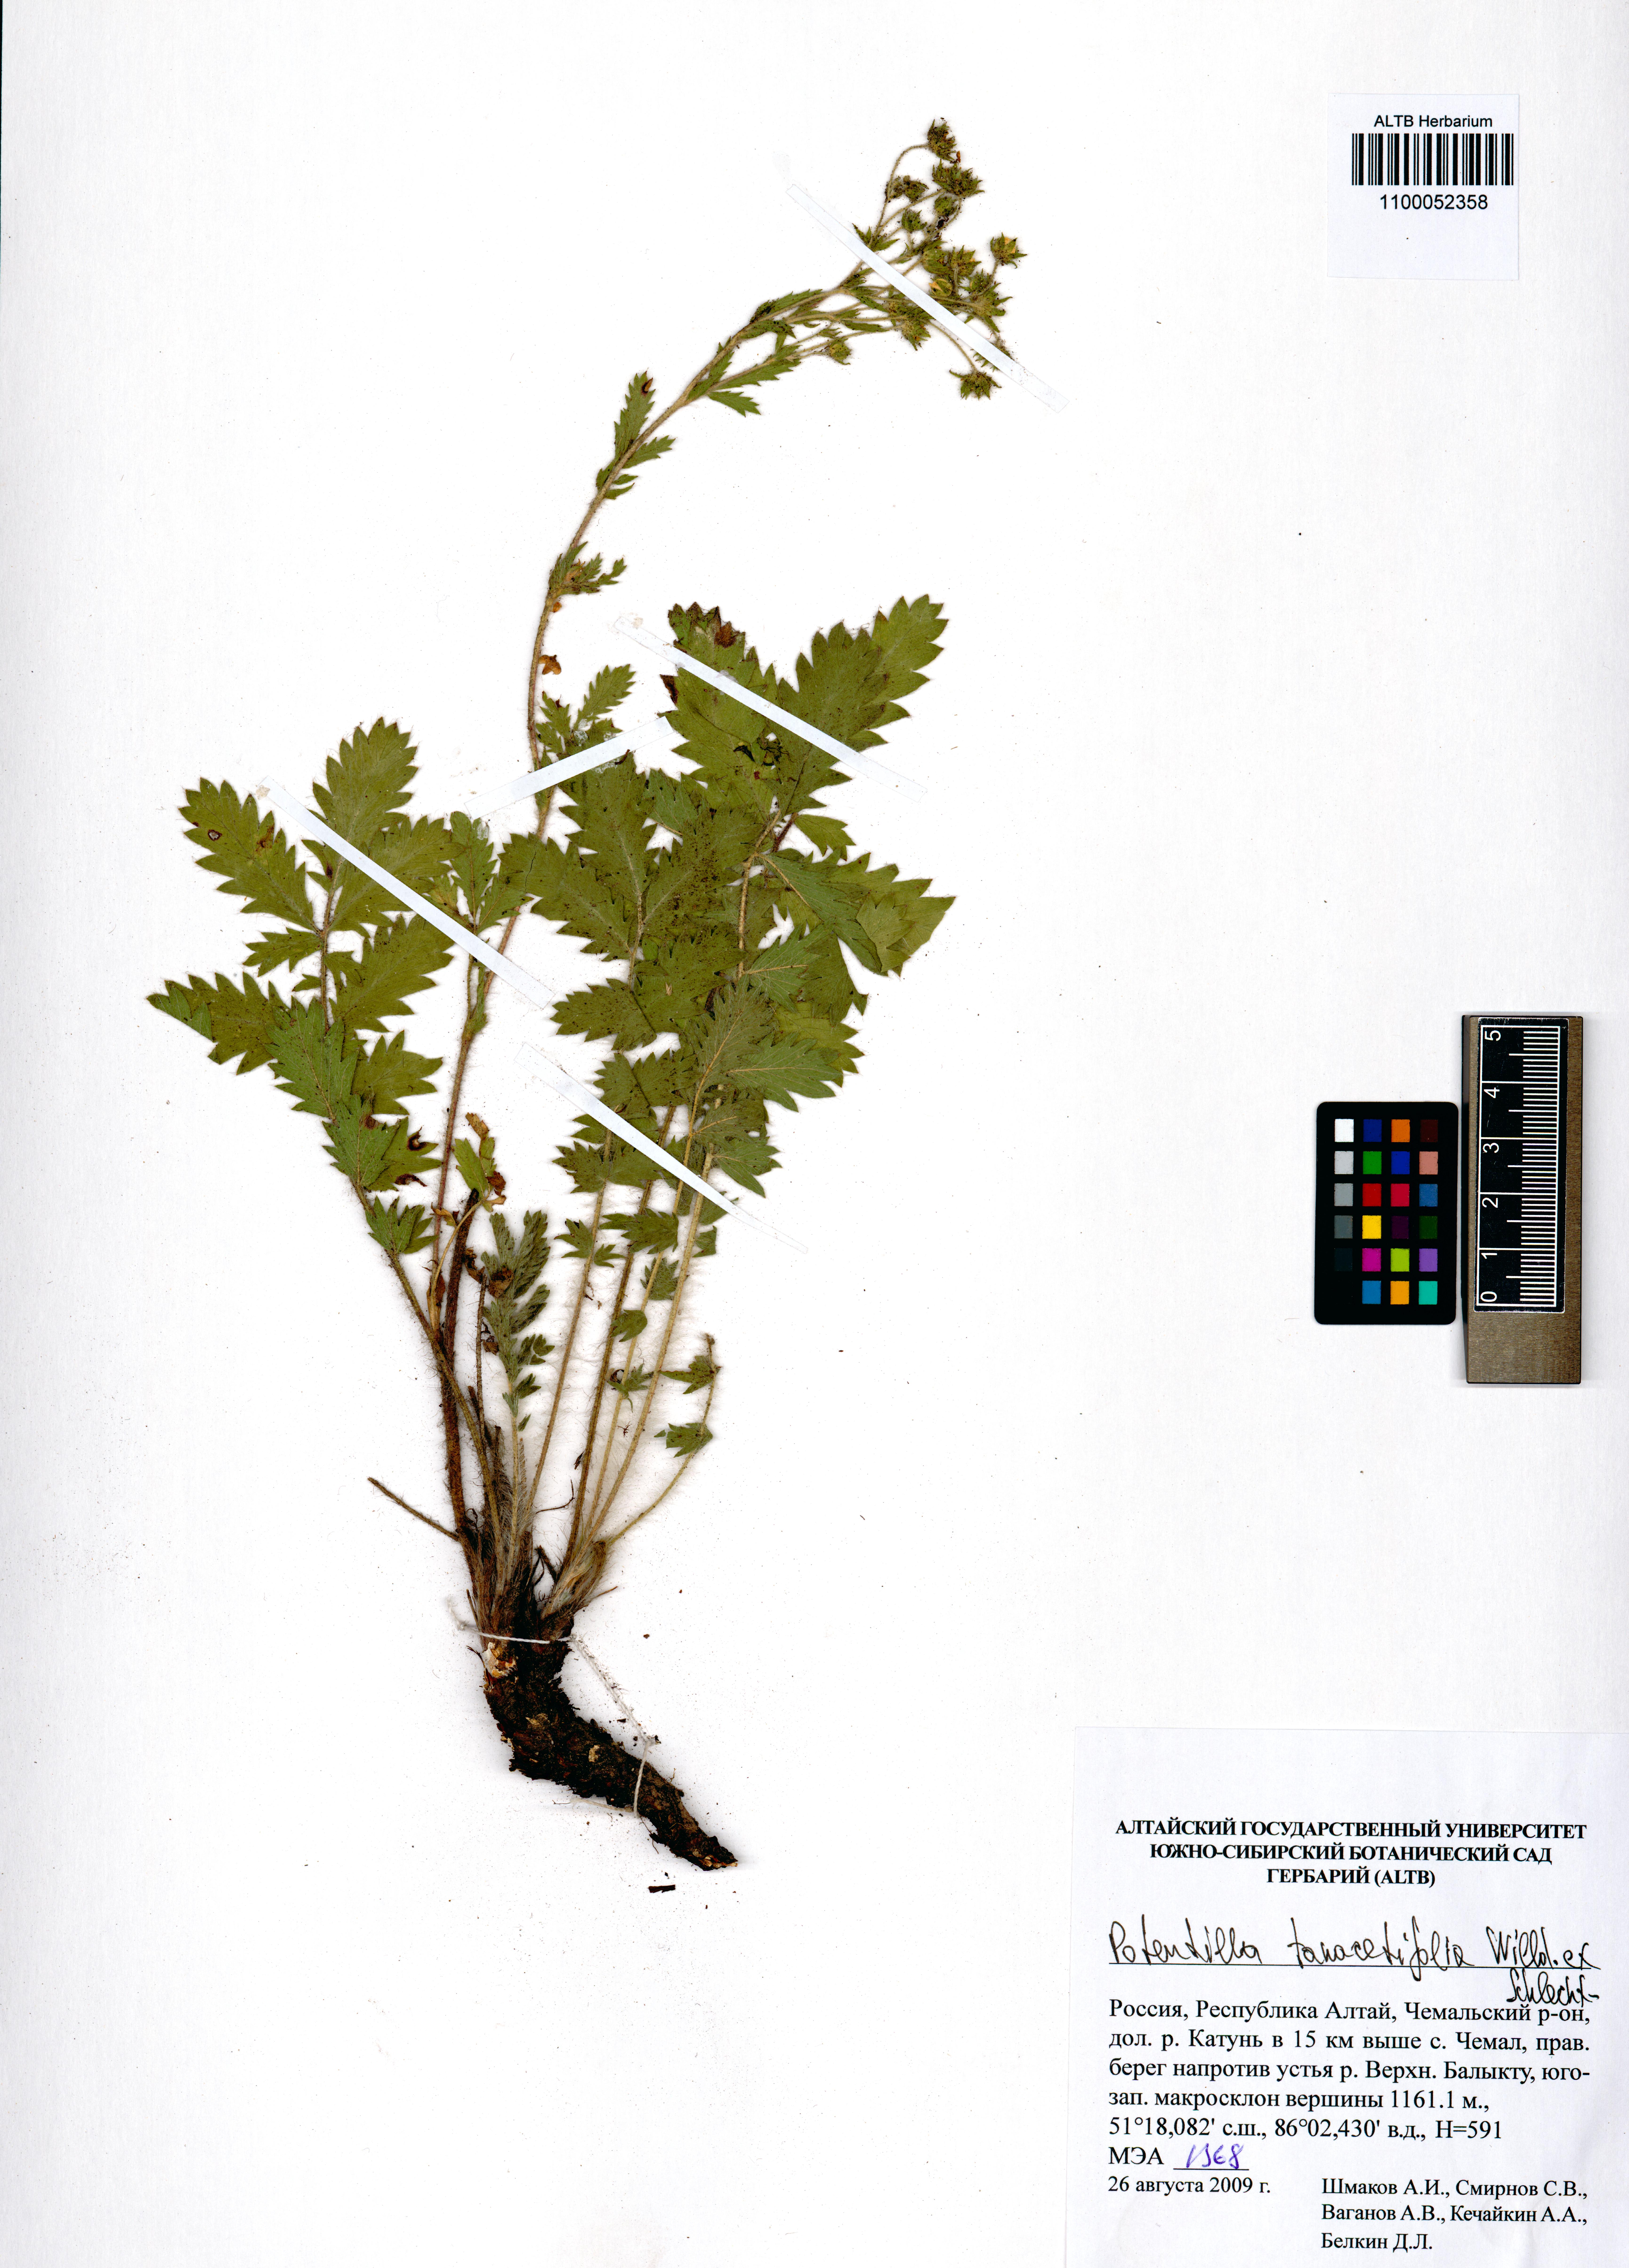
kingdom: Plantae
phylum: Tracheophyta
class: Magnoliopsida
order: Rosales
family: Rosaceae
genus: Potentilla
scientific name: Potentilla tanacetifolia
